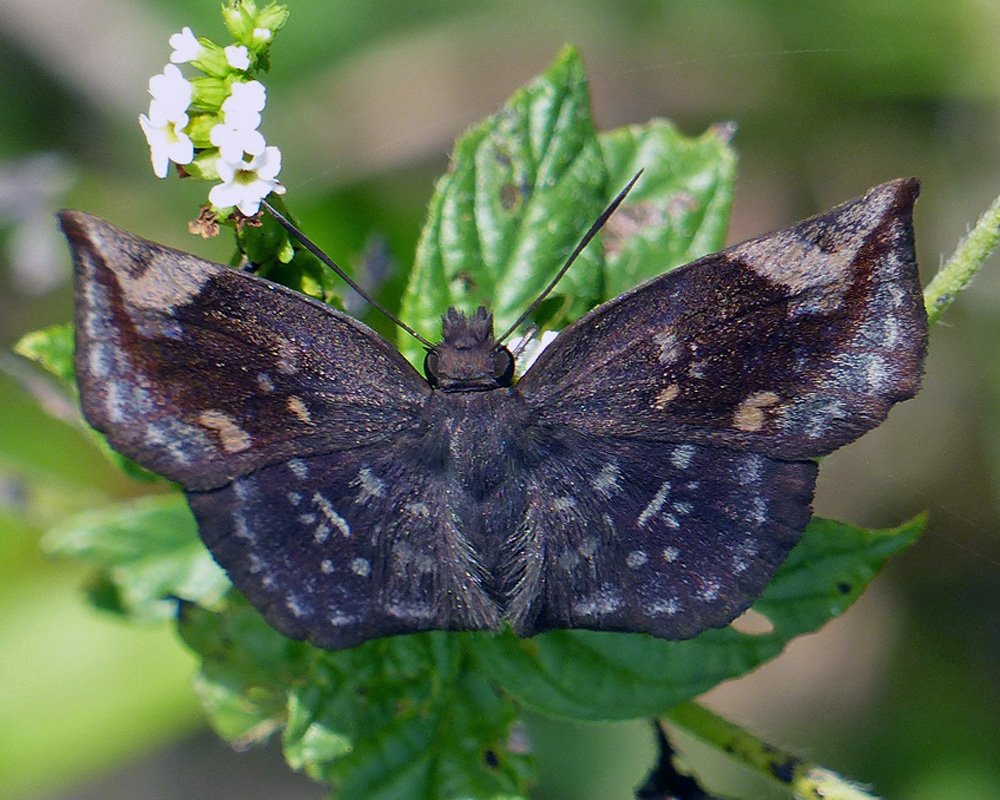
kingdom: Animalia
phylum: Arthropoda
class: Insecta
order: Lepidoptera
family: Hesperiidae
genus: Achlyodes
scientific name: Achlyodes thraso
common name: Sickle-winged Skipper
